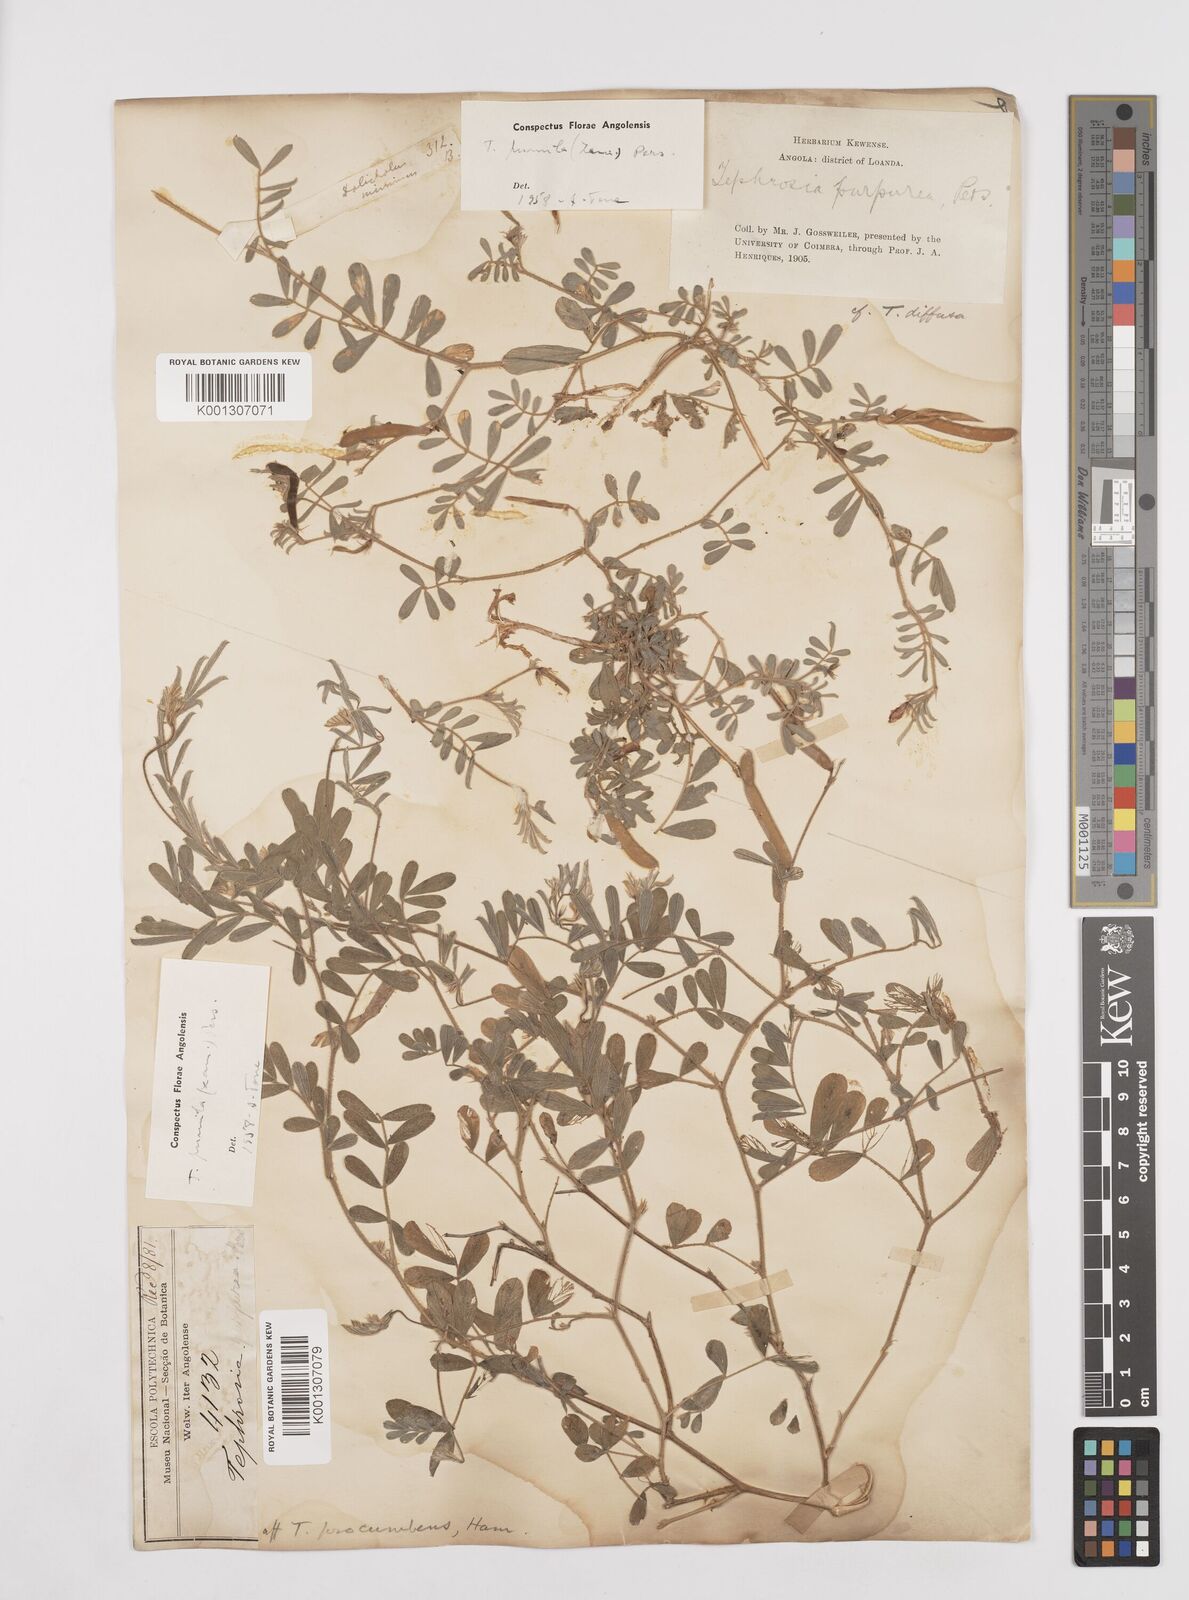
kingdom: Plantae
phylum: Tracheophyta
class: Magnoliopsida
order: Fabales
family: Fabaceae
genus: Tephrosia
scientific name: Tephrosia pumila
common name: Indigo sauvage
